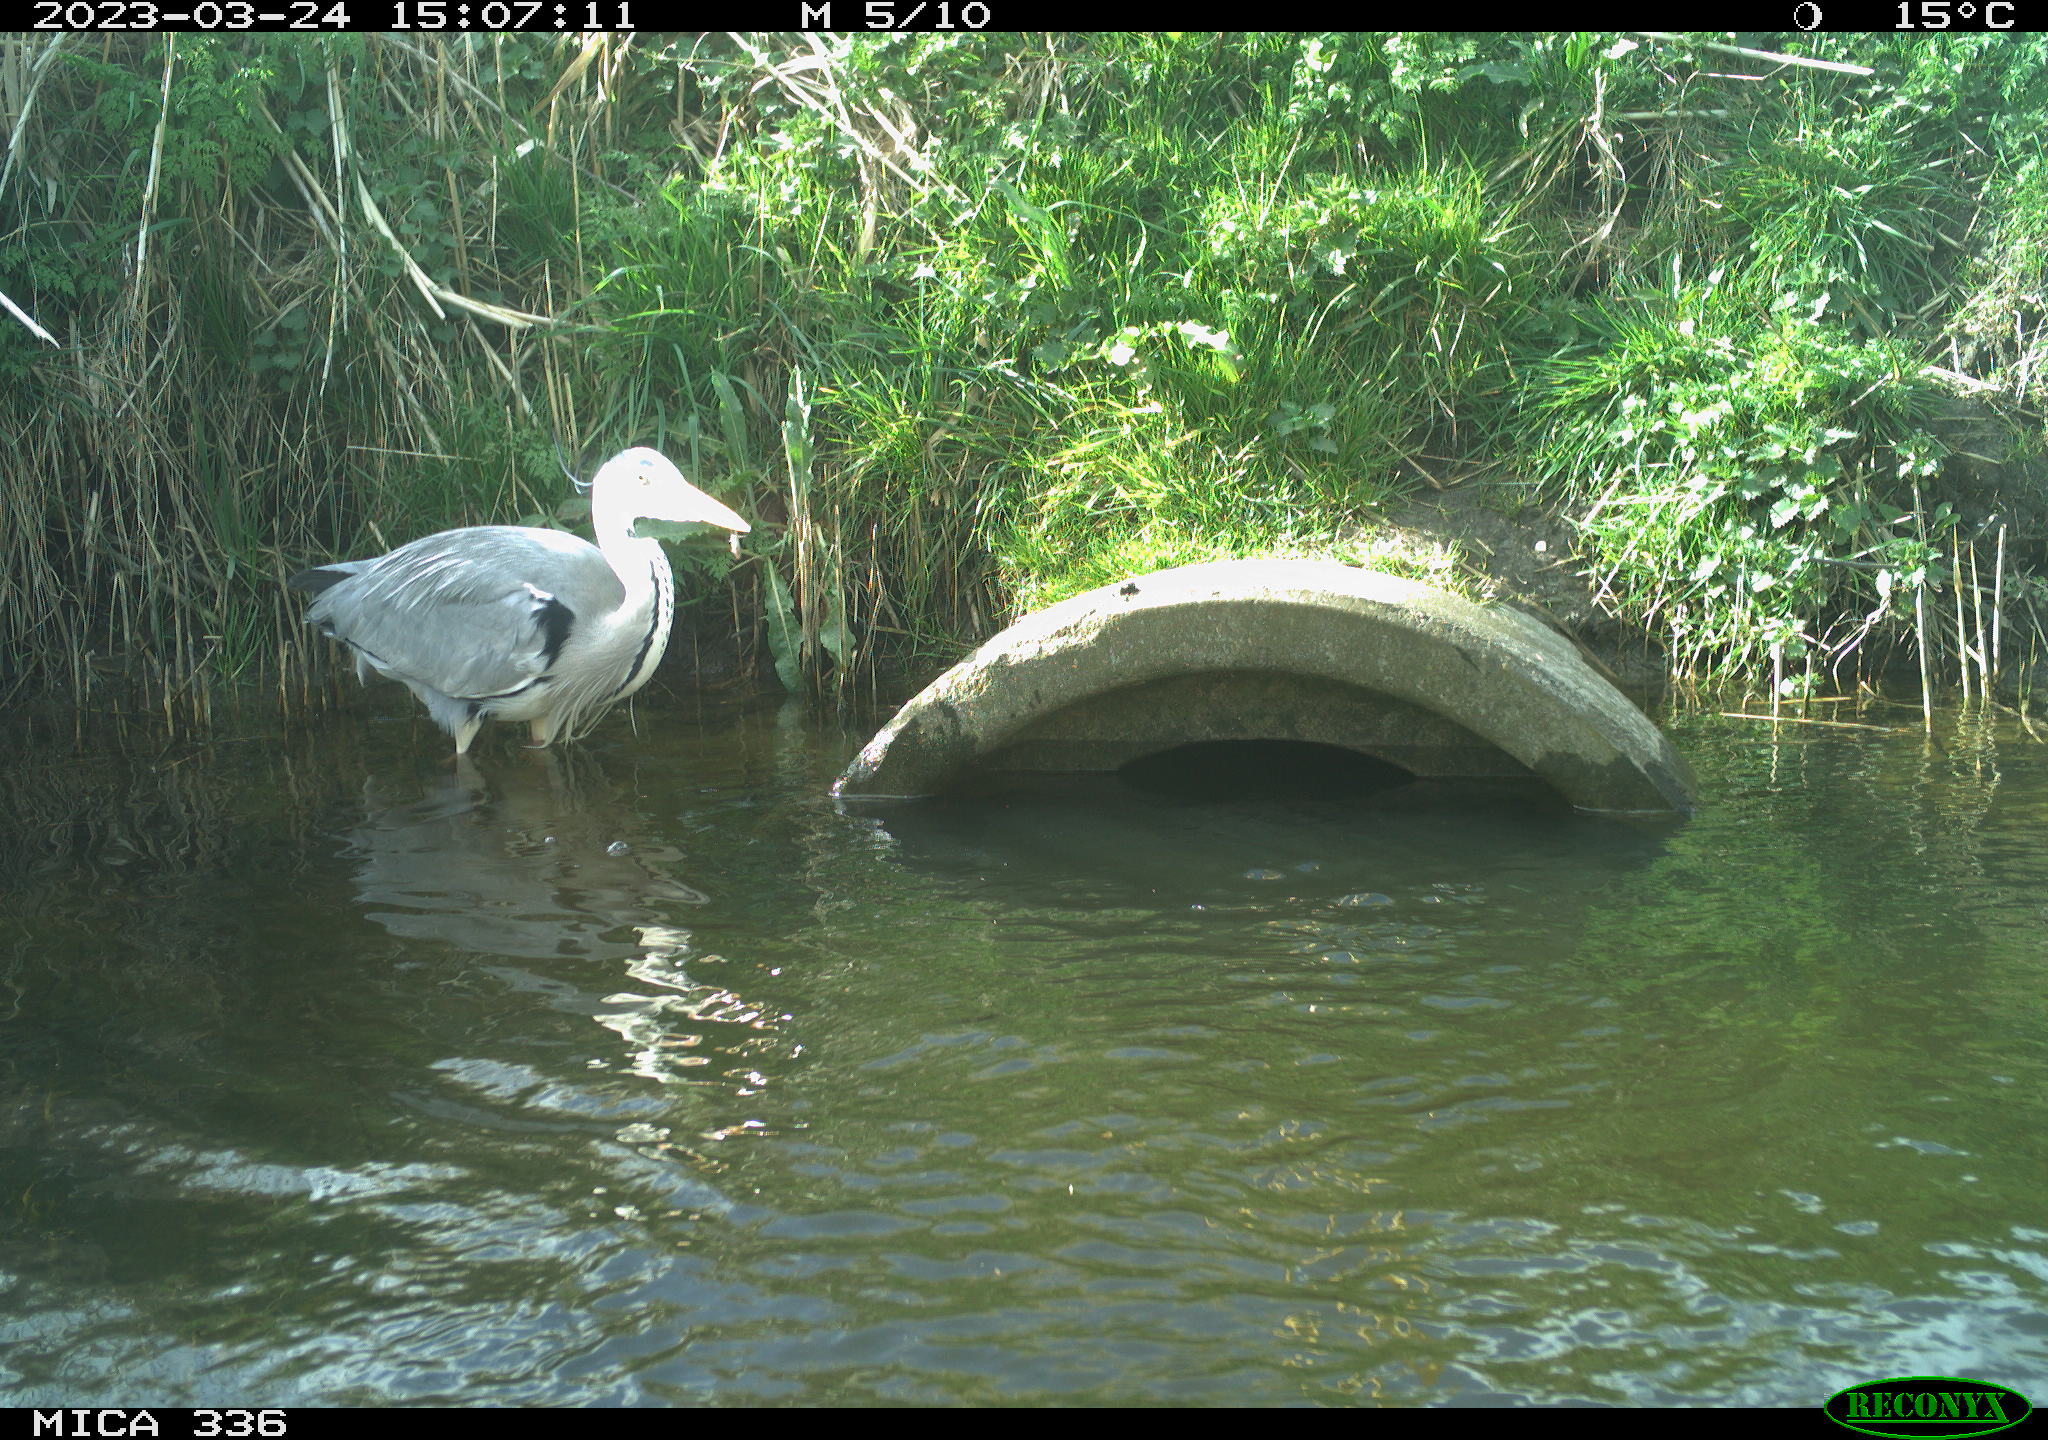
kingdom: Animalia
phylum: Chordata
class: Aves
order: Pelecaniformes
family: Ardeidae
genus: Ardea
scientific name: Ardea
